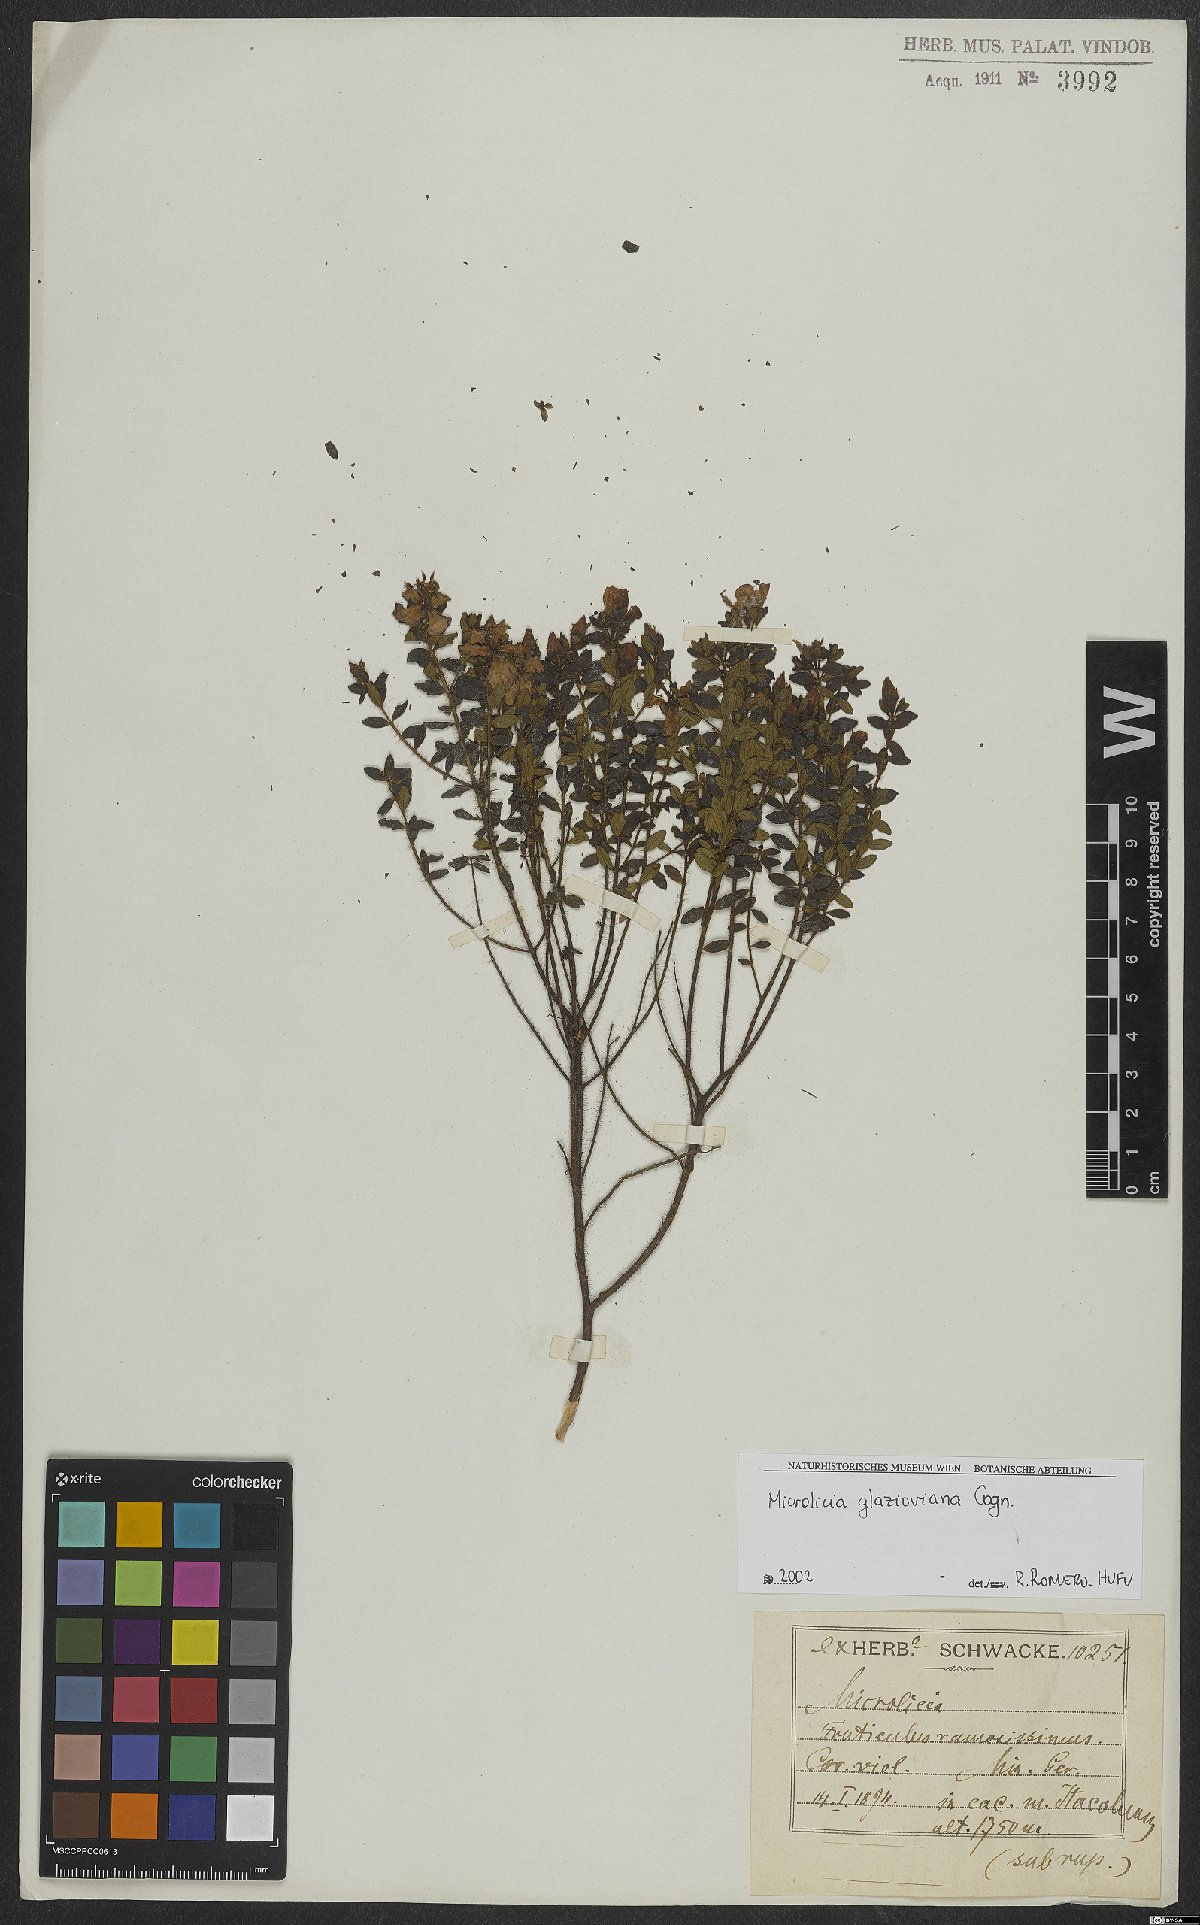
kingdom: Plantae
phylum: Tracheophyta
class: Magnoliopsida
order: Myrtales
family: Melastomataceae
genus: Microlicia
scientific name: Microlicia glazioviana
